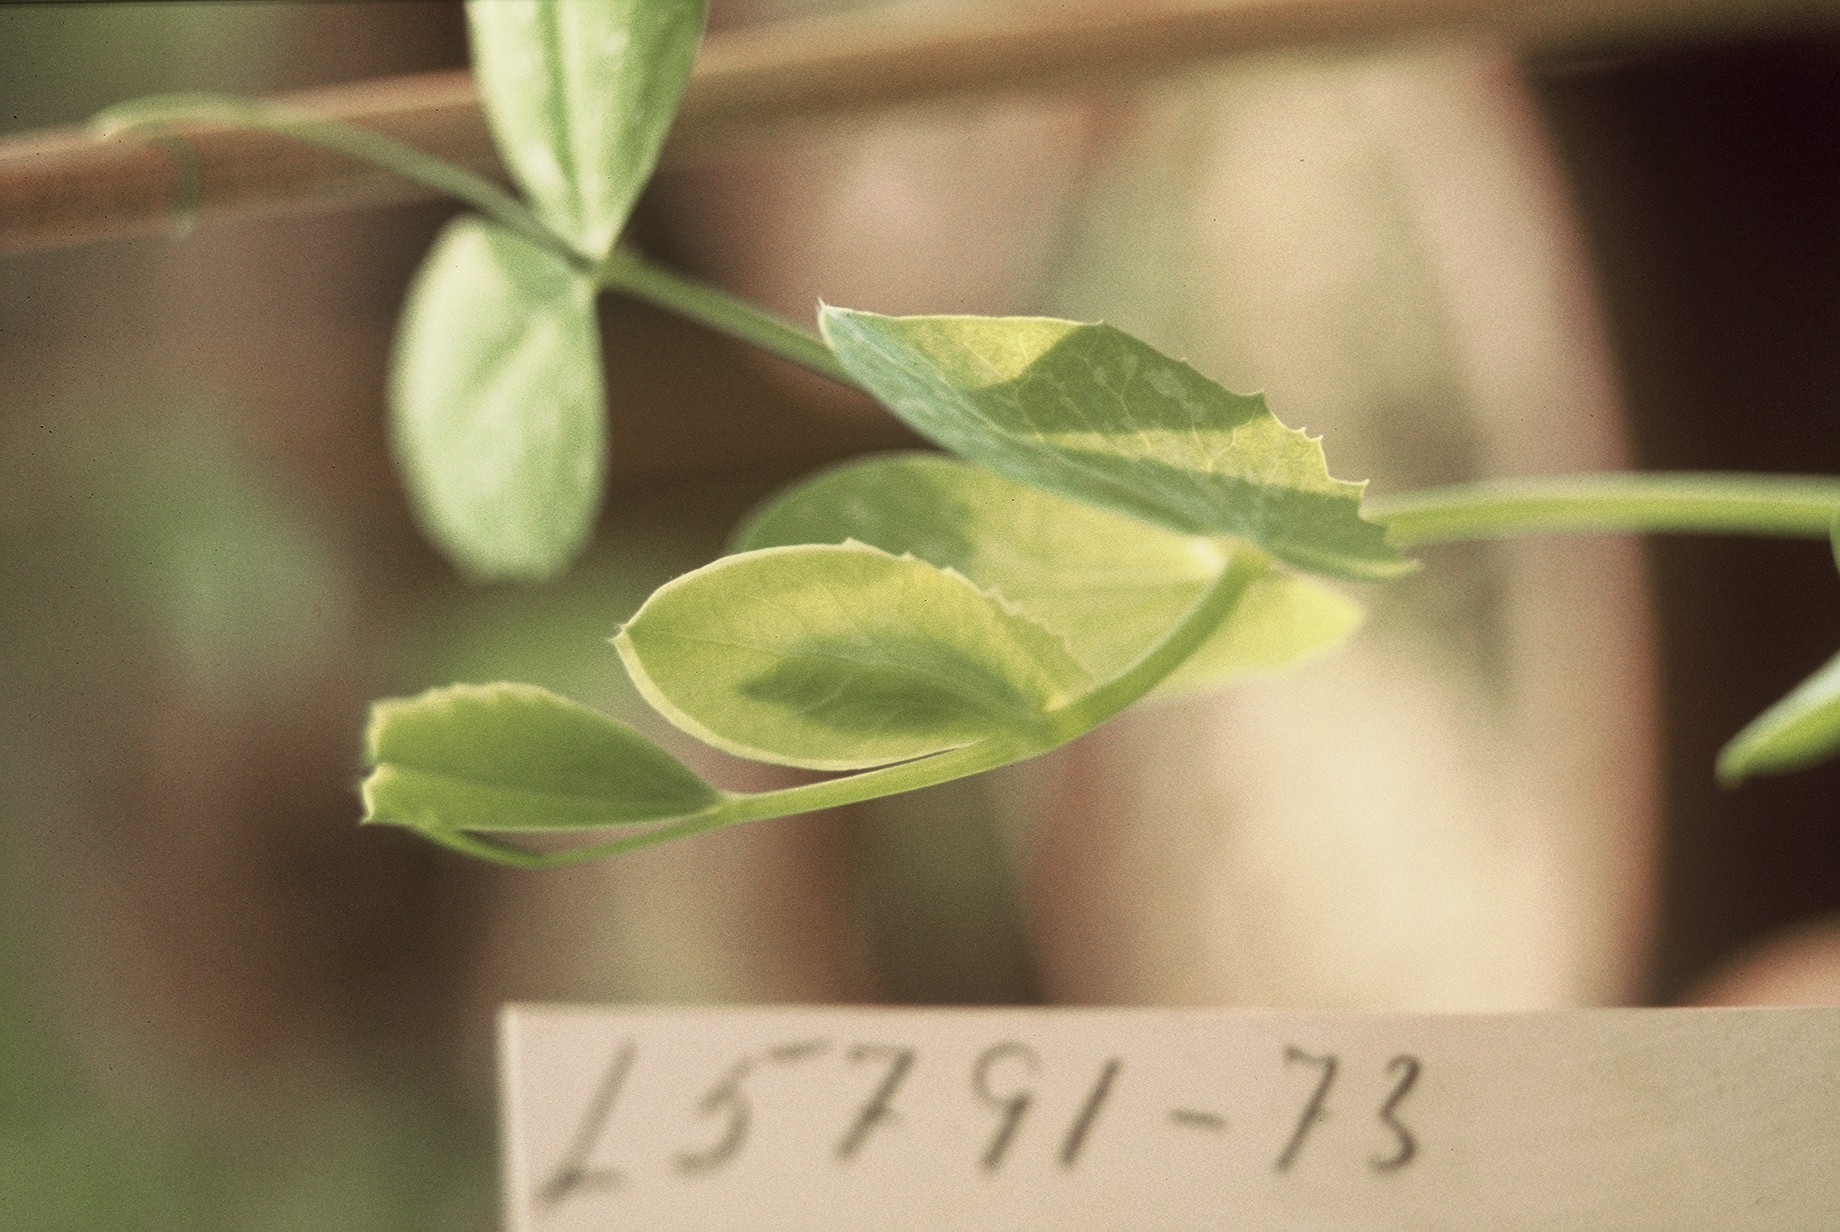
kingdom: Plantae
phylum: Tracheophyta
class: Magnoliopsida
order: Fabales
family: Fabaceae
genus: Lathyrus
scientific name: Lathyrus oleraceus
